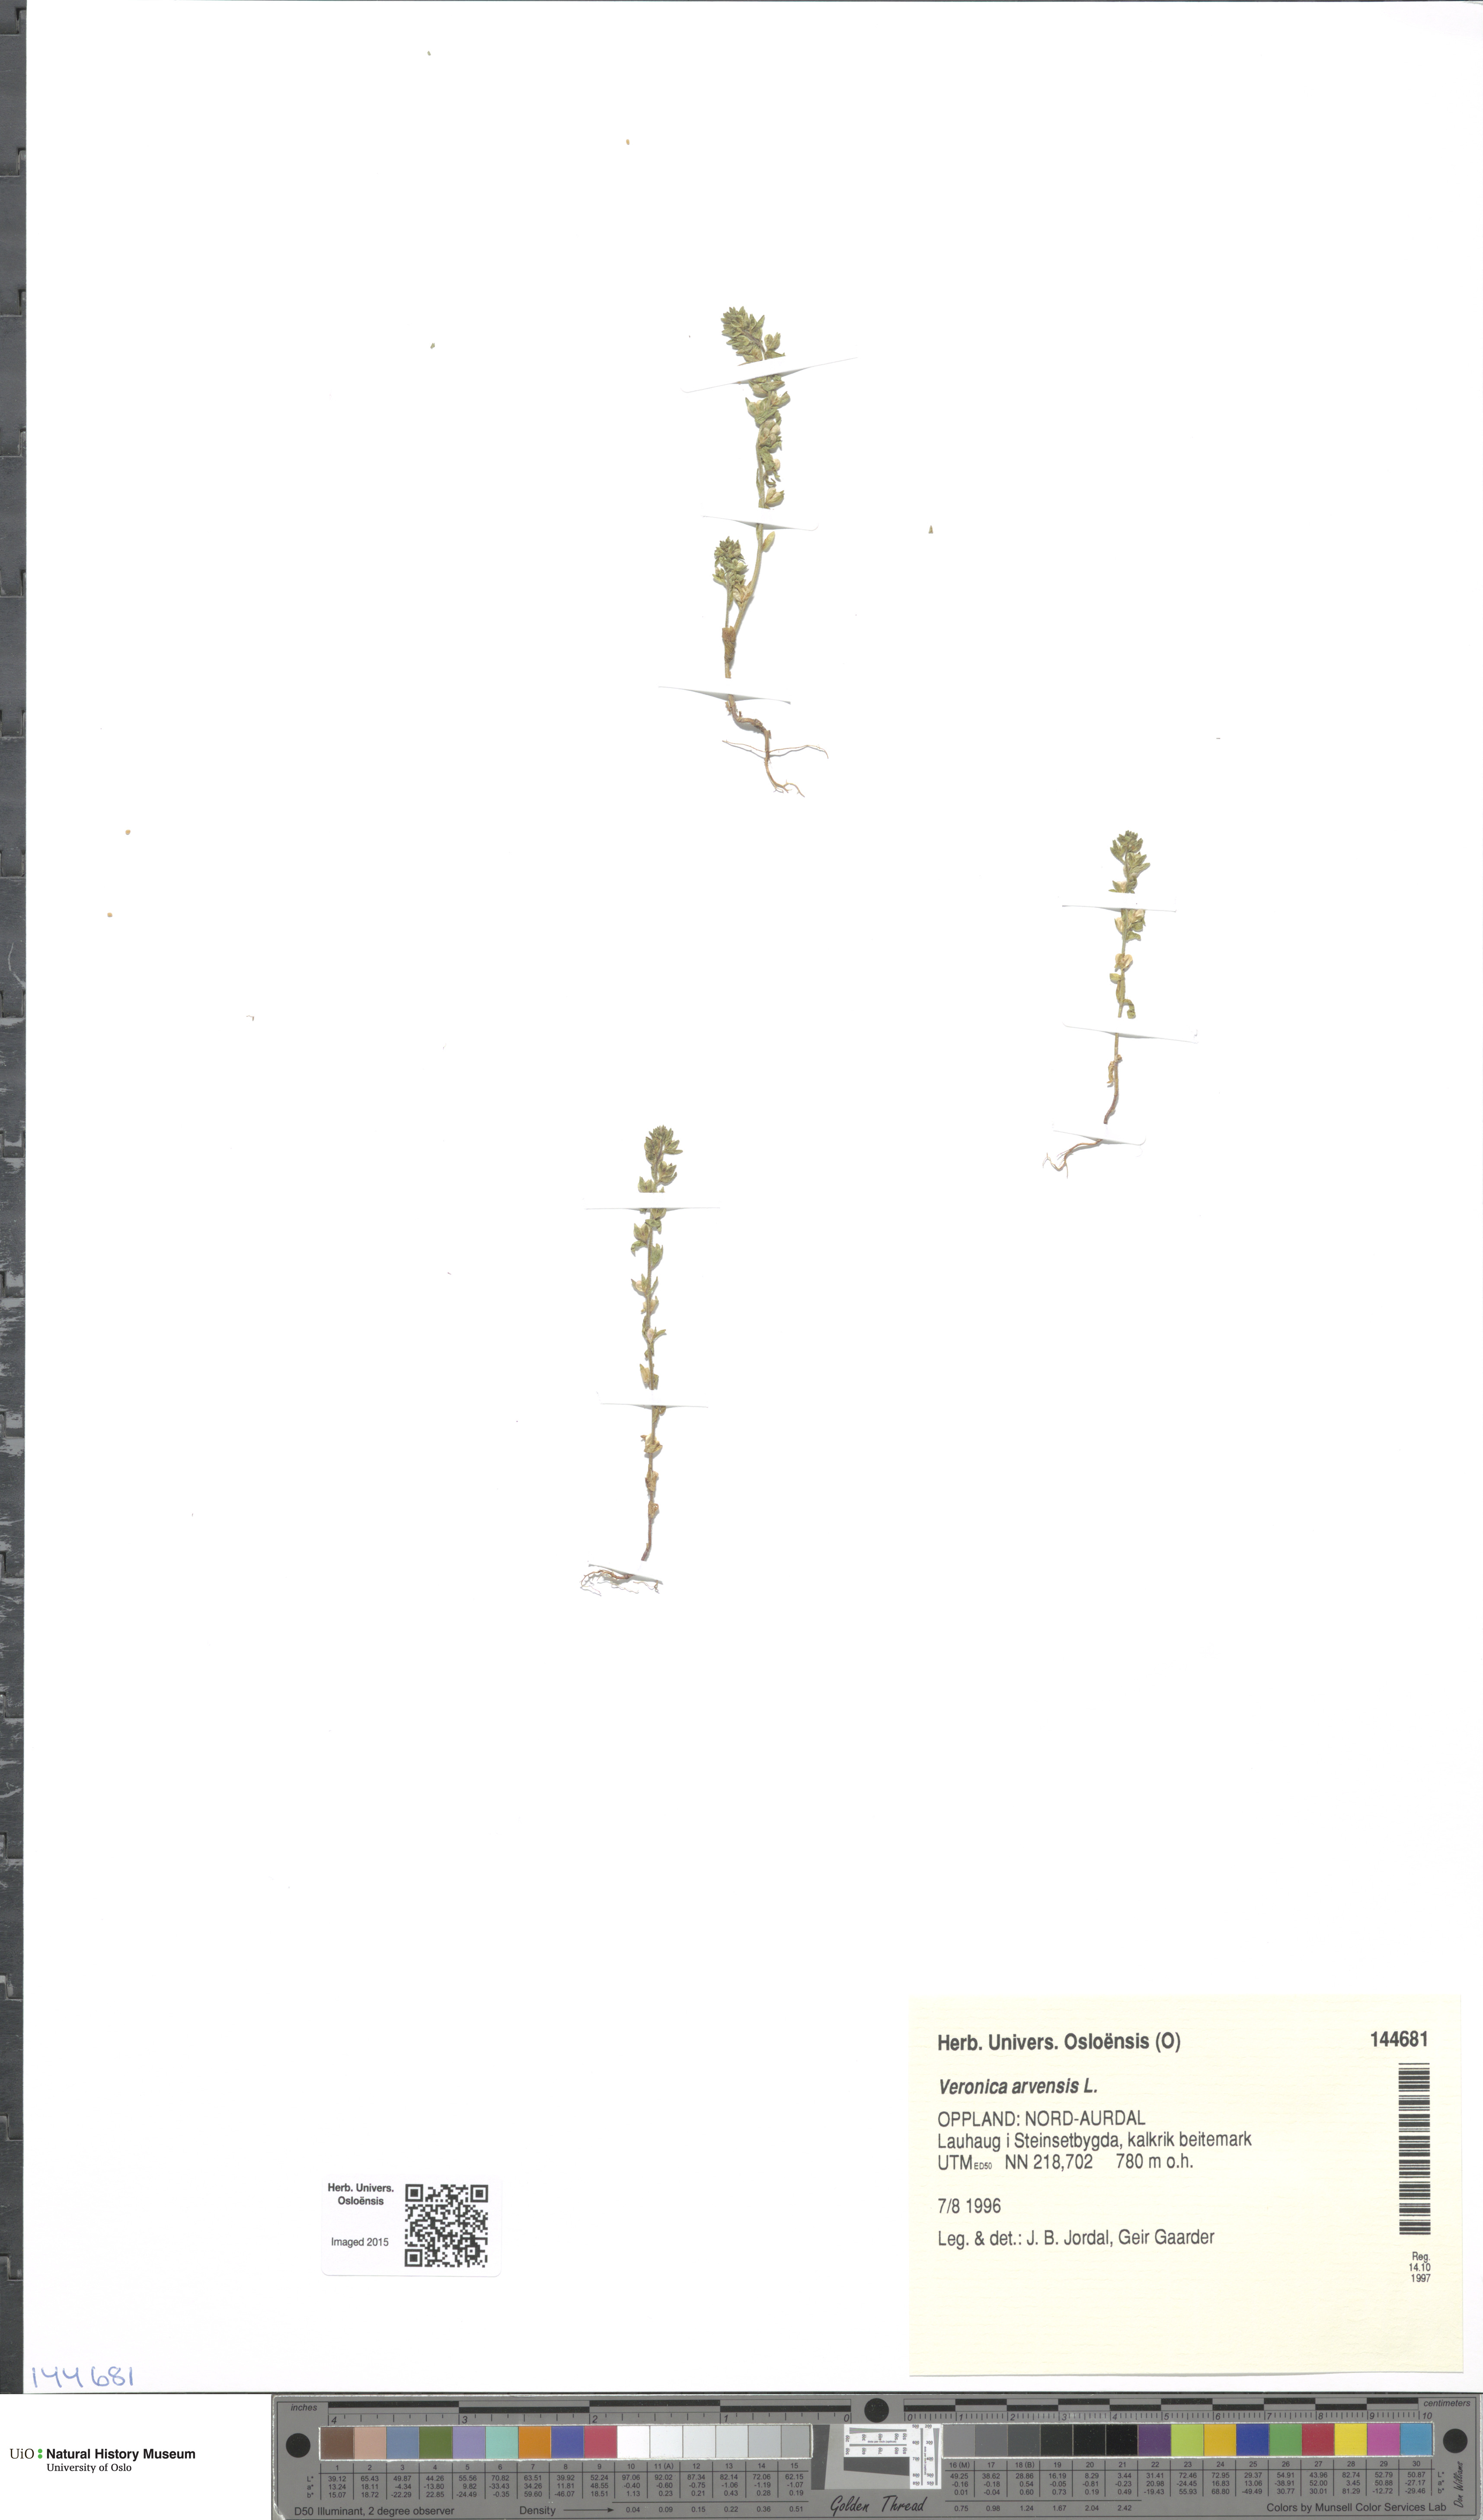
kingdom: Plantae
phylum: Tracheophyta
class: Magnoliopsida
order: Lamiales
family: Plantaginaceae
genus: Veronica
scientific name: Veronica arvensis
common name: Corn speedwell
